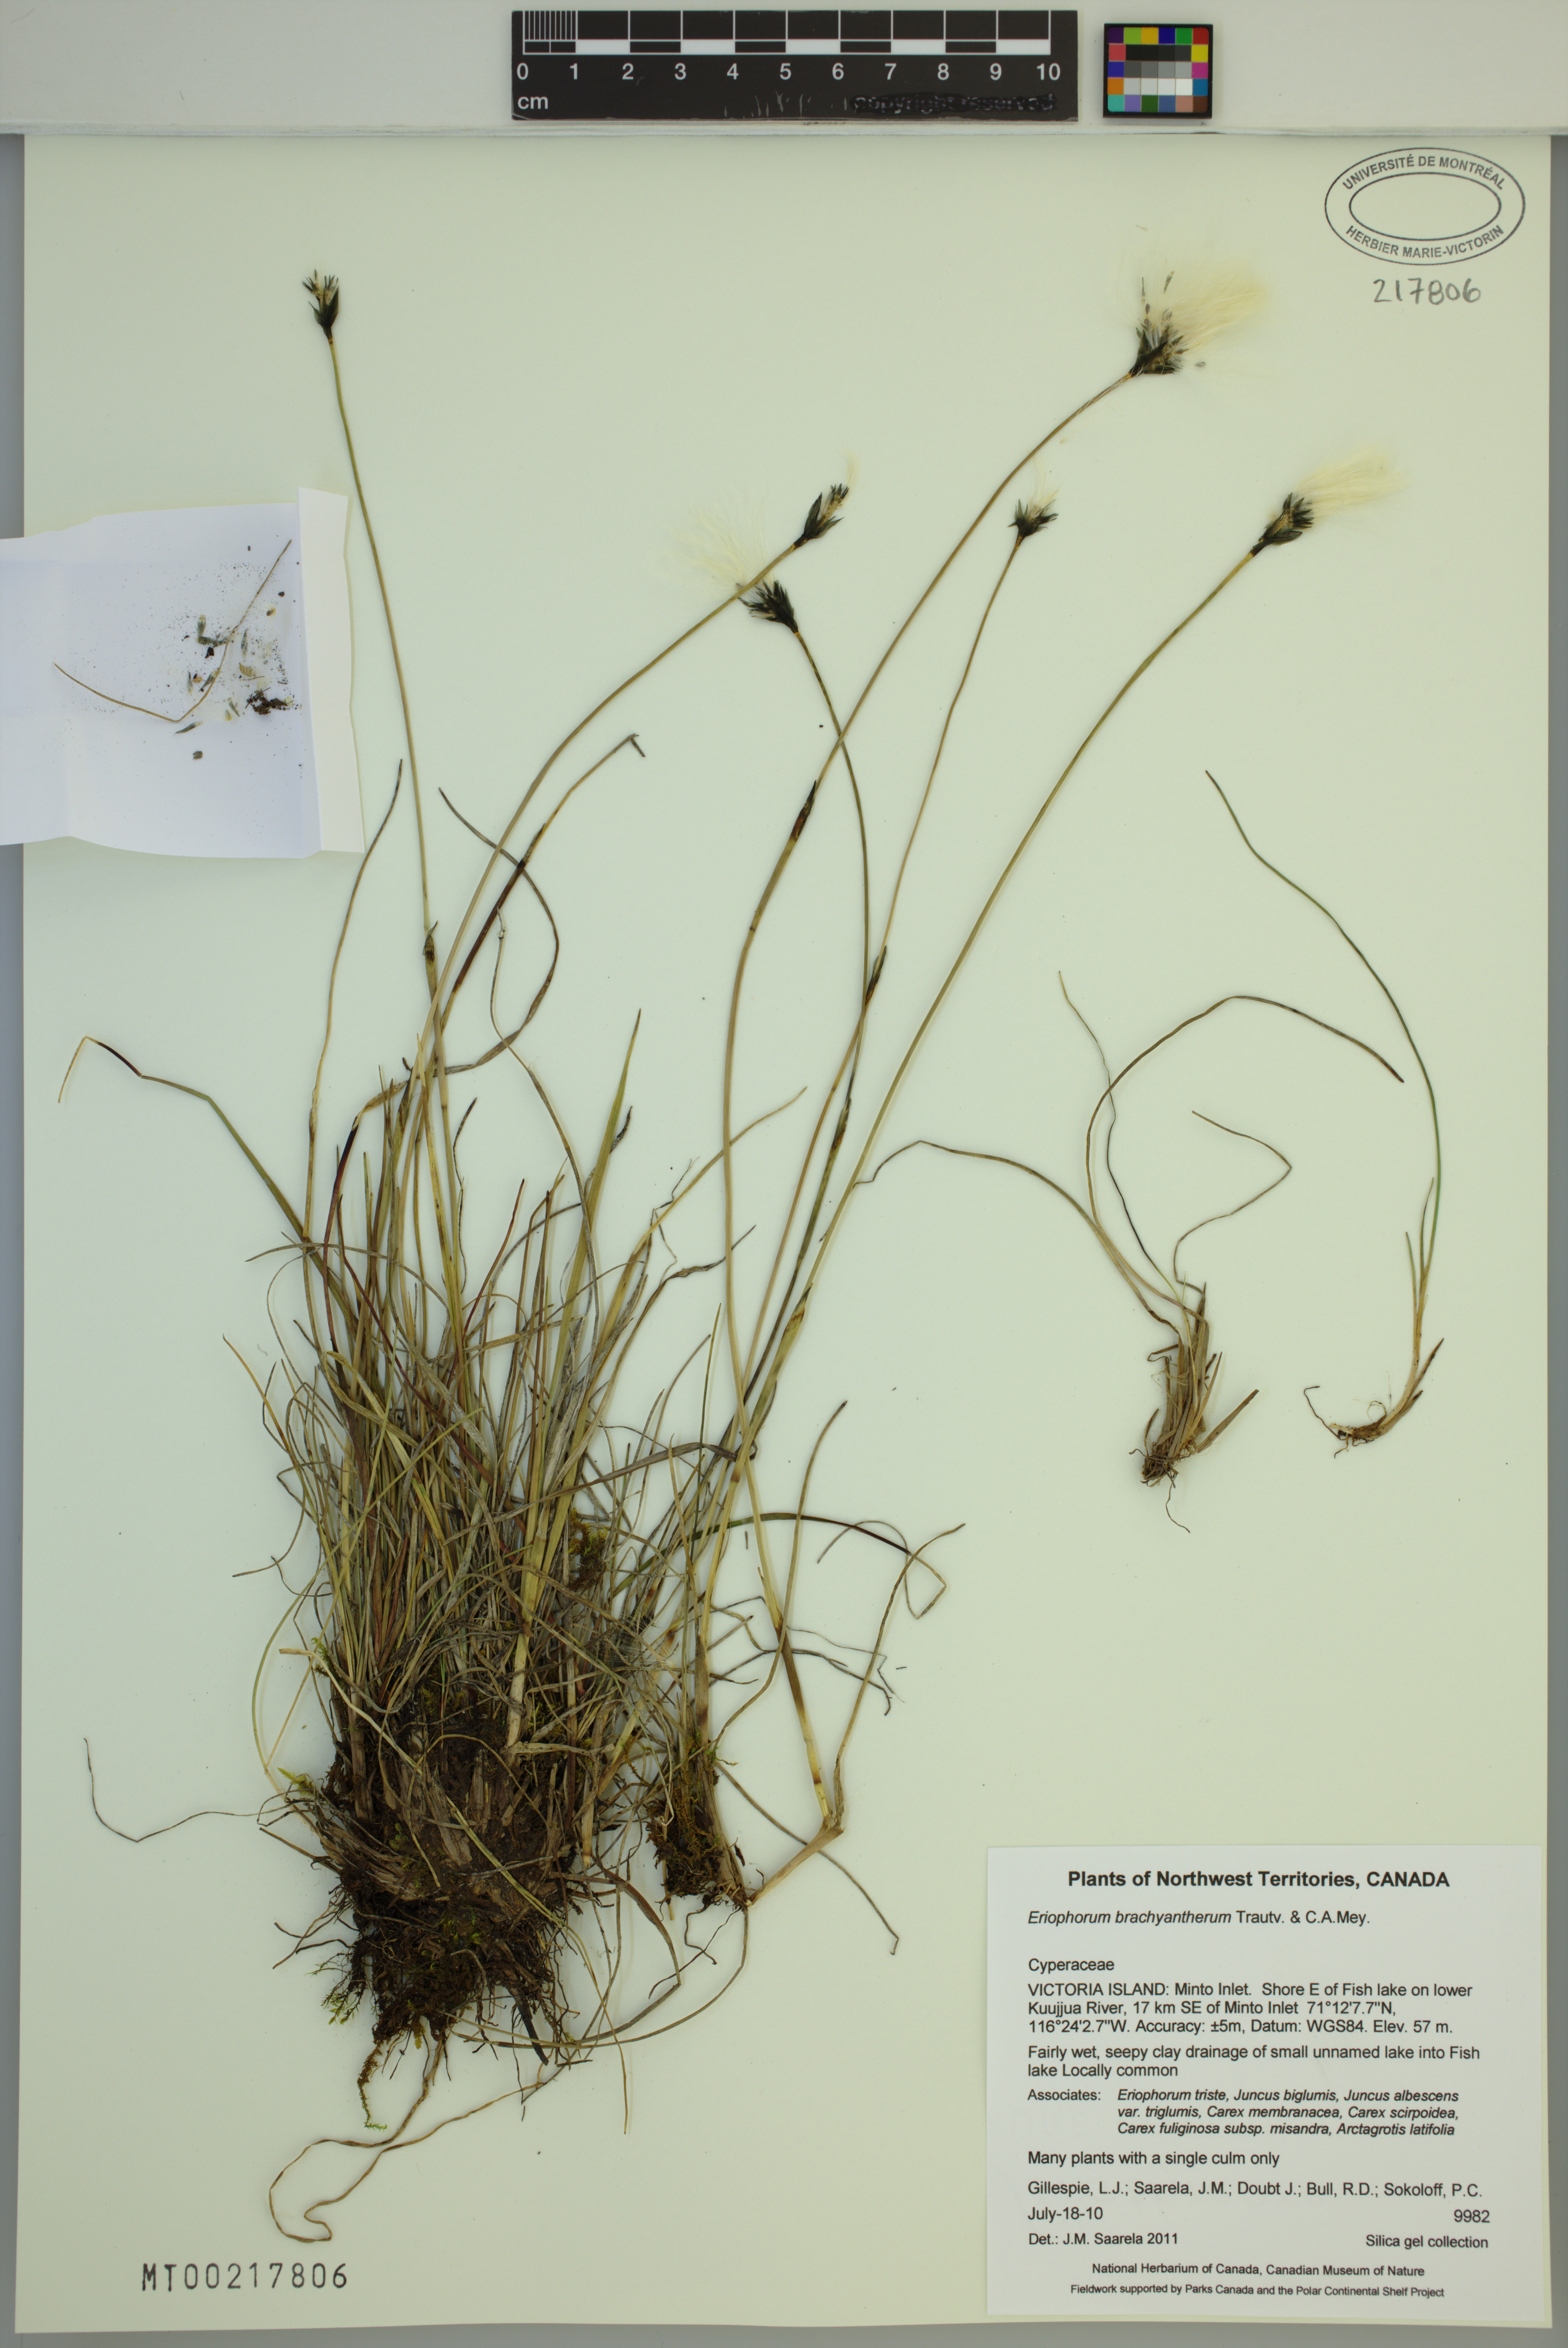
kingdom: Plantae
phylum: Tracheophyta
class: Liliopsida
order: Poales
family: Cyperaceae
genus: Eriophorum
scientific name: Eriophorum brachyantherum
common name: Closed-sheathed cottongrass
